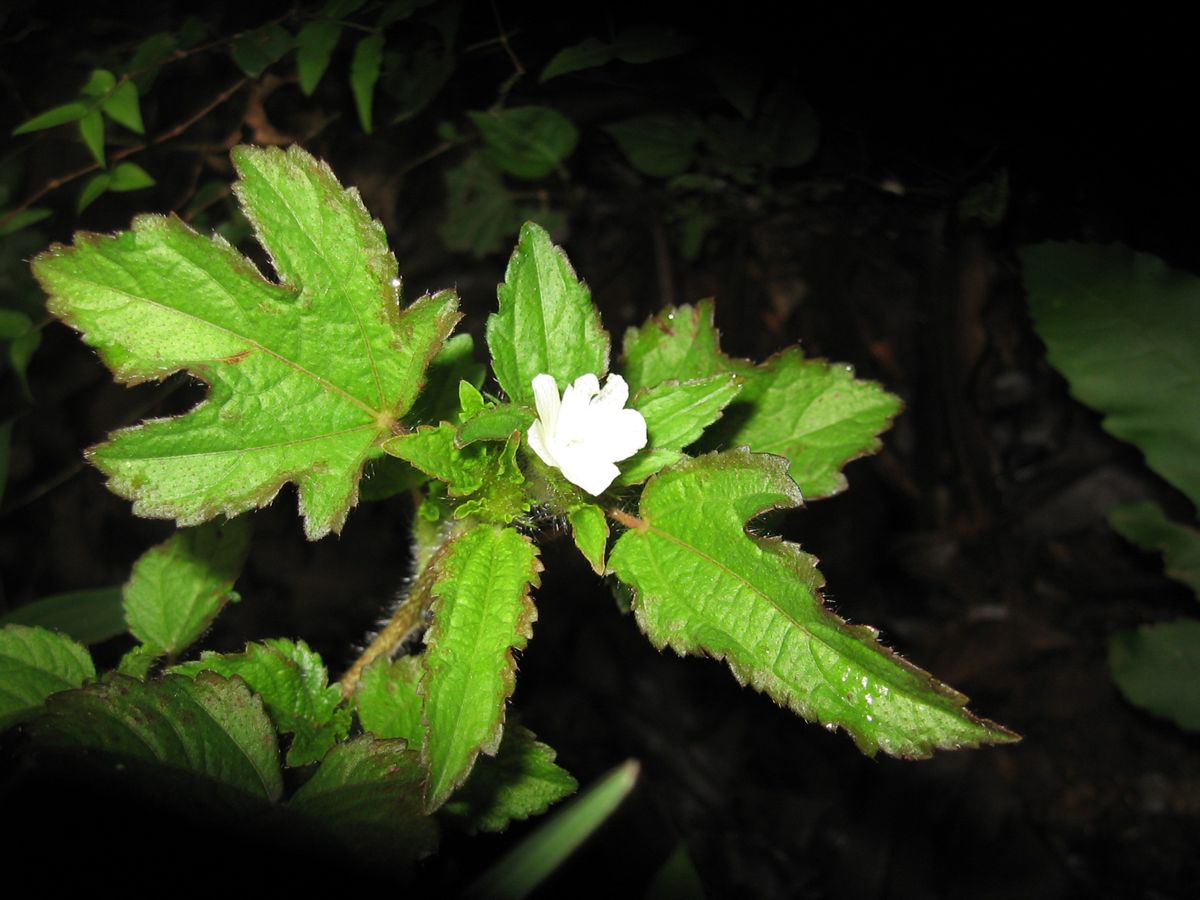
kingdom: Plantae
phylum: Tracheophyta
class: Magnoliopsida
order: Malvales
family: Malvaceae
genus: Malachra
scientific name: Malachra fasciata
